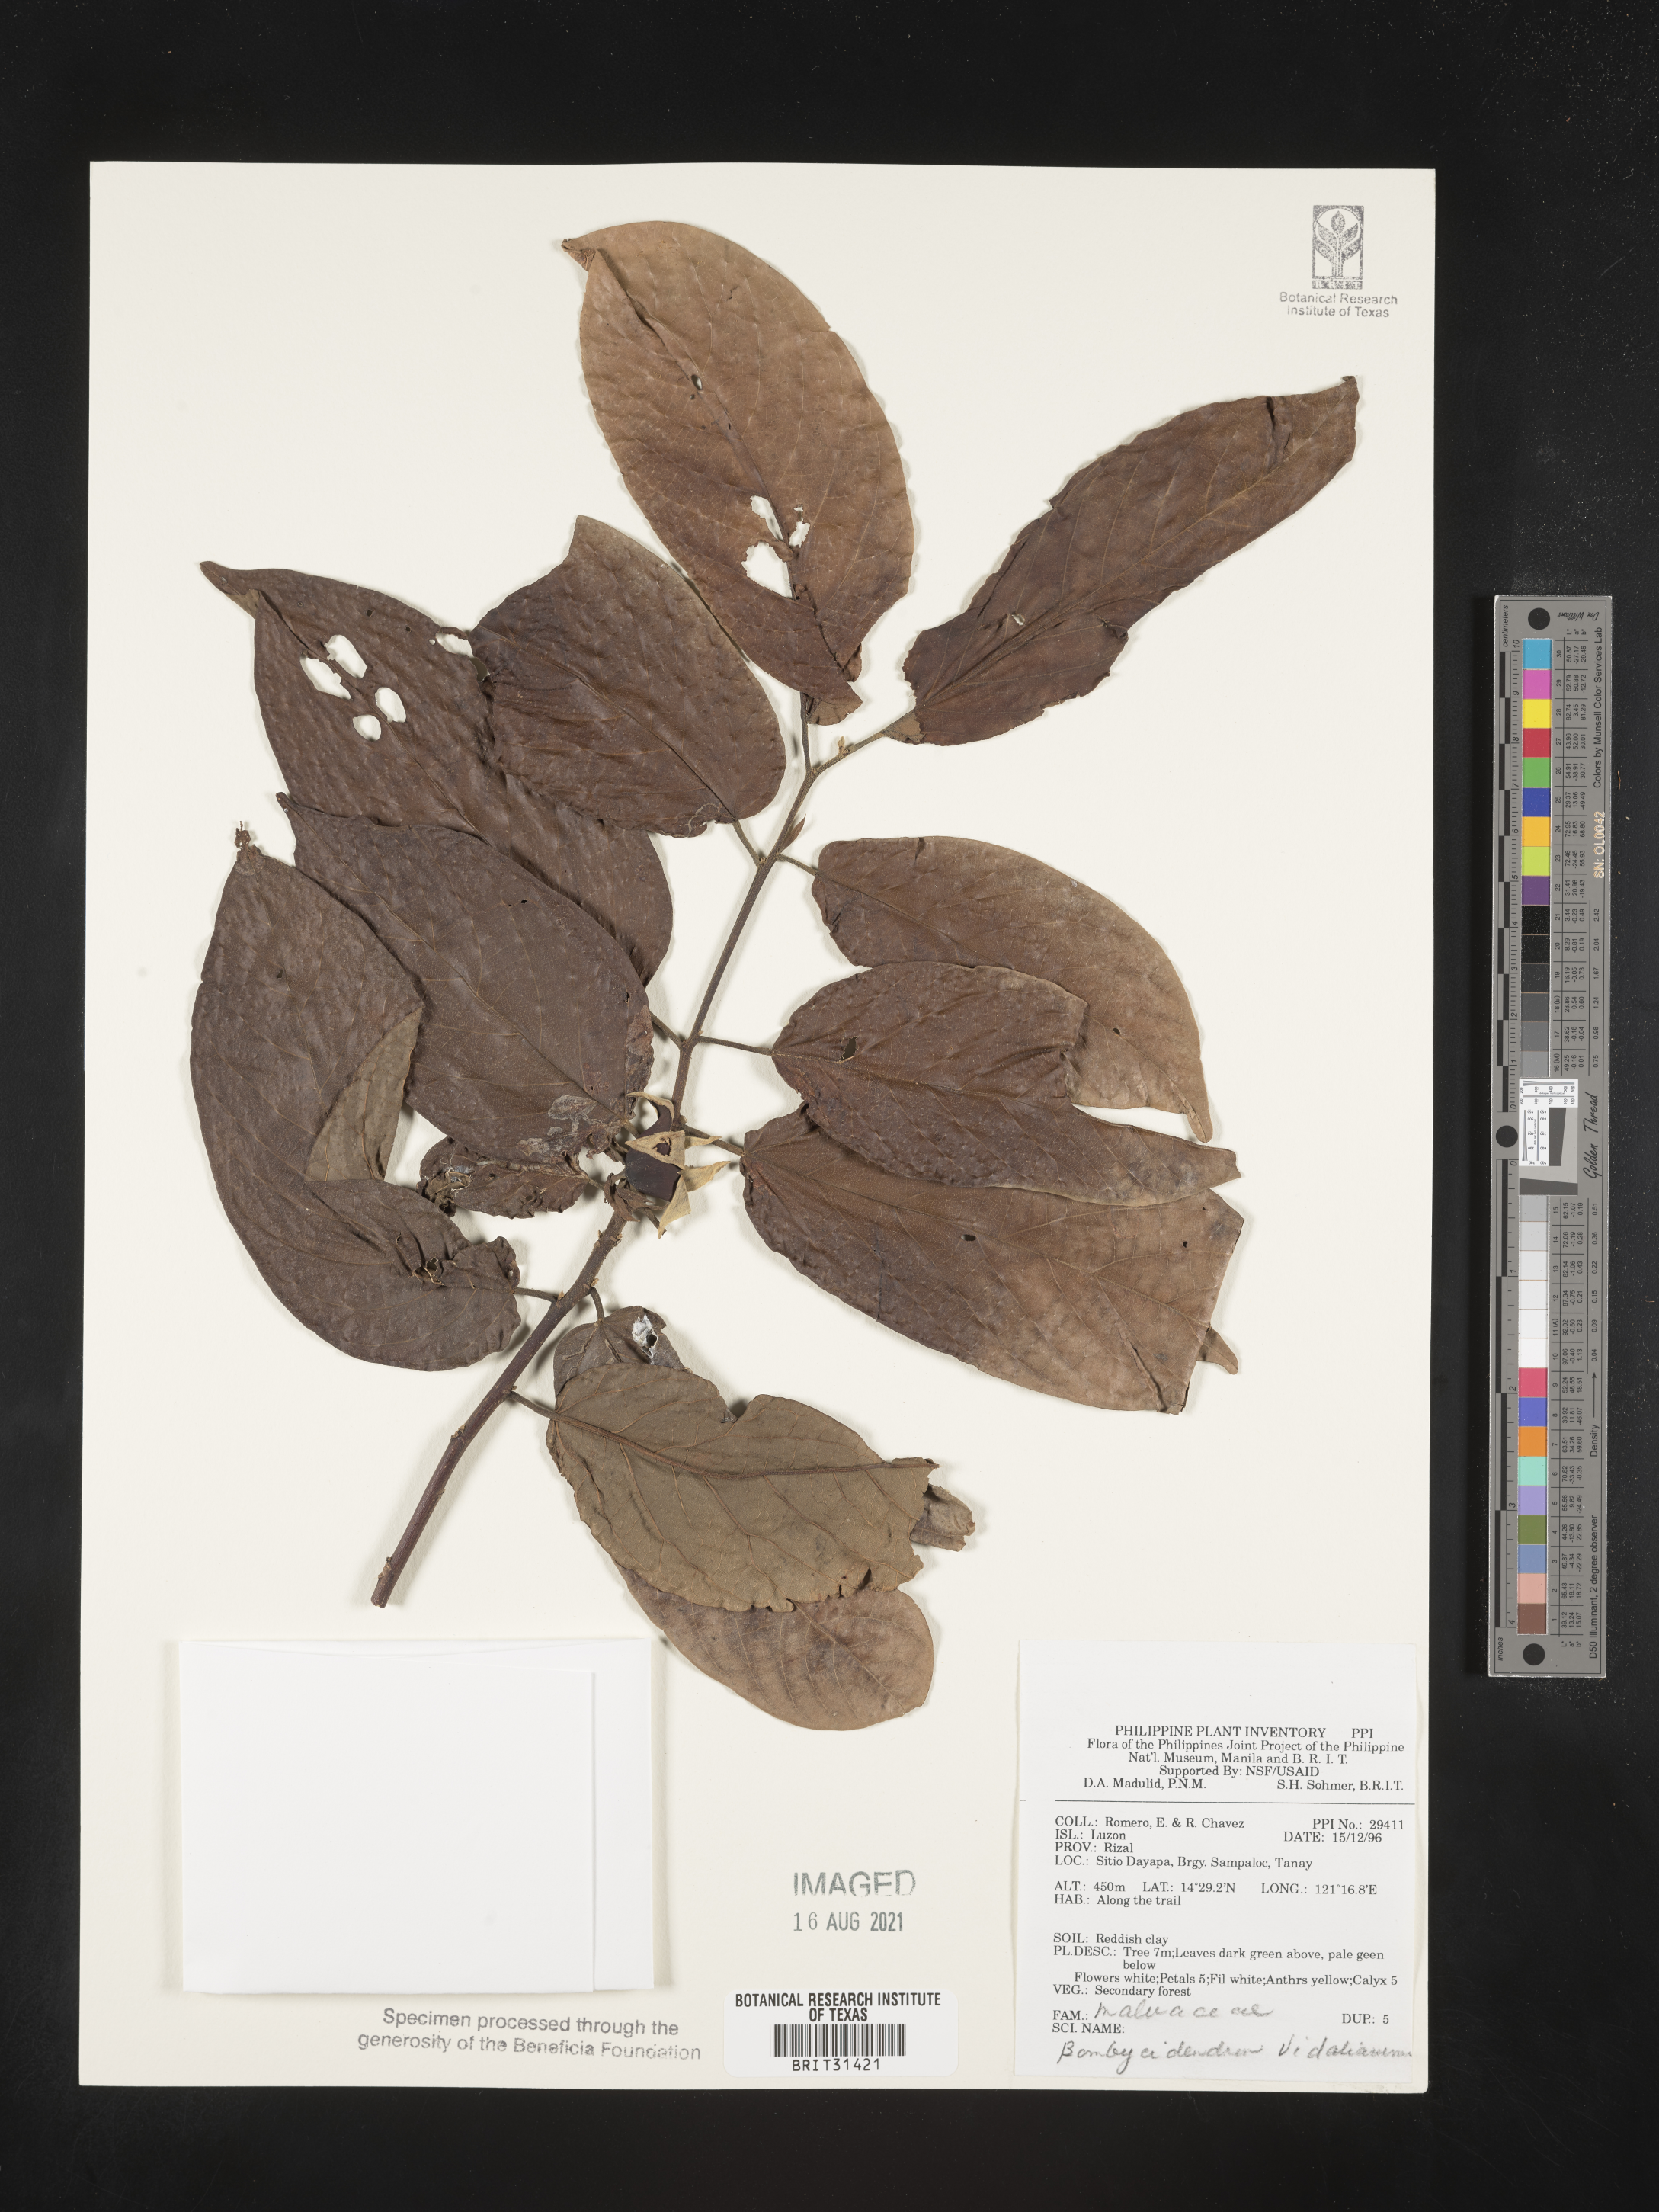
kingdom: Plantae
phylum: Tracheophyta
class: Magnoliopsida
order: Malvales
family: Malvaceae
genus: Hibiscus
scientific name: Hibiscus campylosiphon
